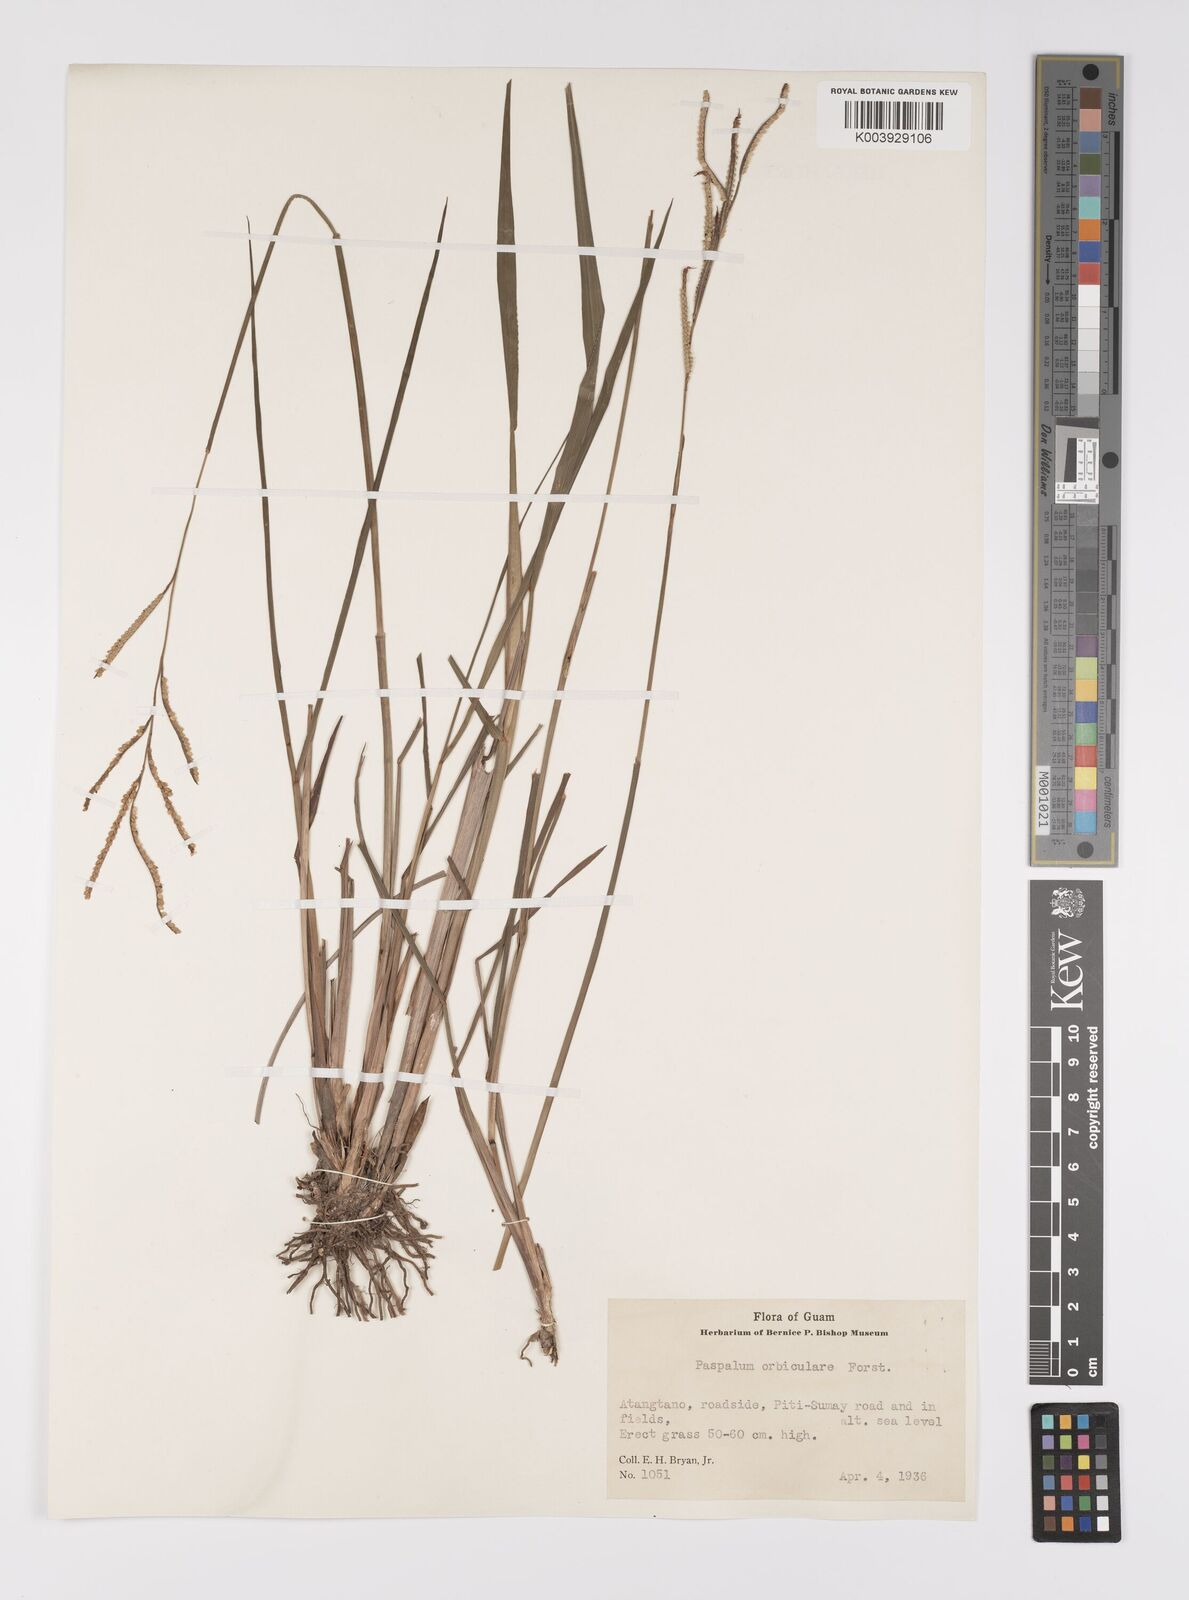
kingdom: Plantae
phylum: Tracheophyta
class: Liliopsida
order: Poales
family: Poaceae
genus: Paspalum
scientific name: Paspalum scrobiculatum
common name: Kodo millet
